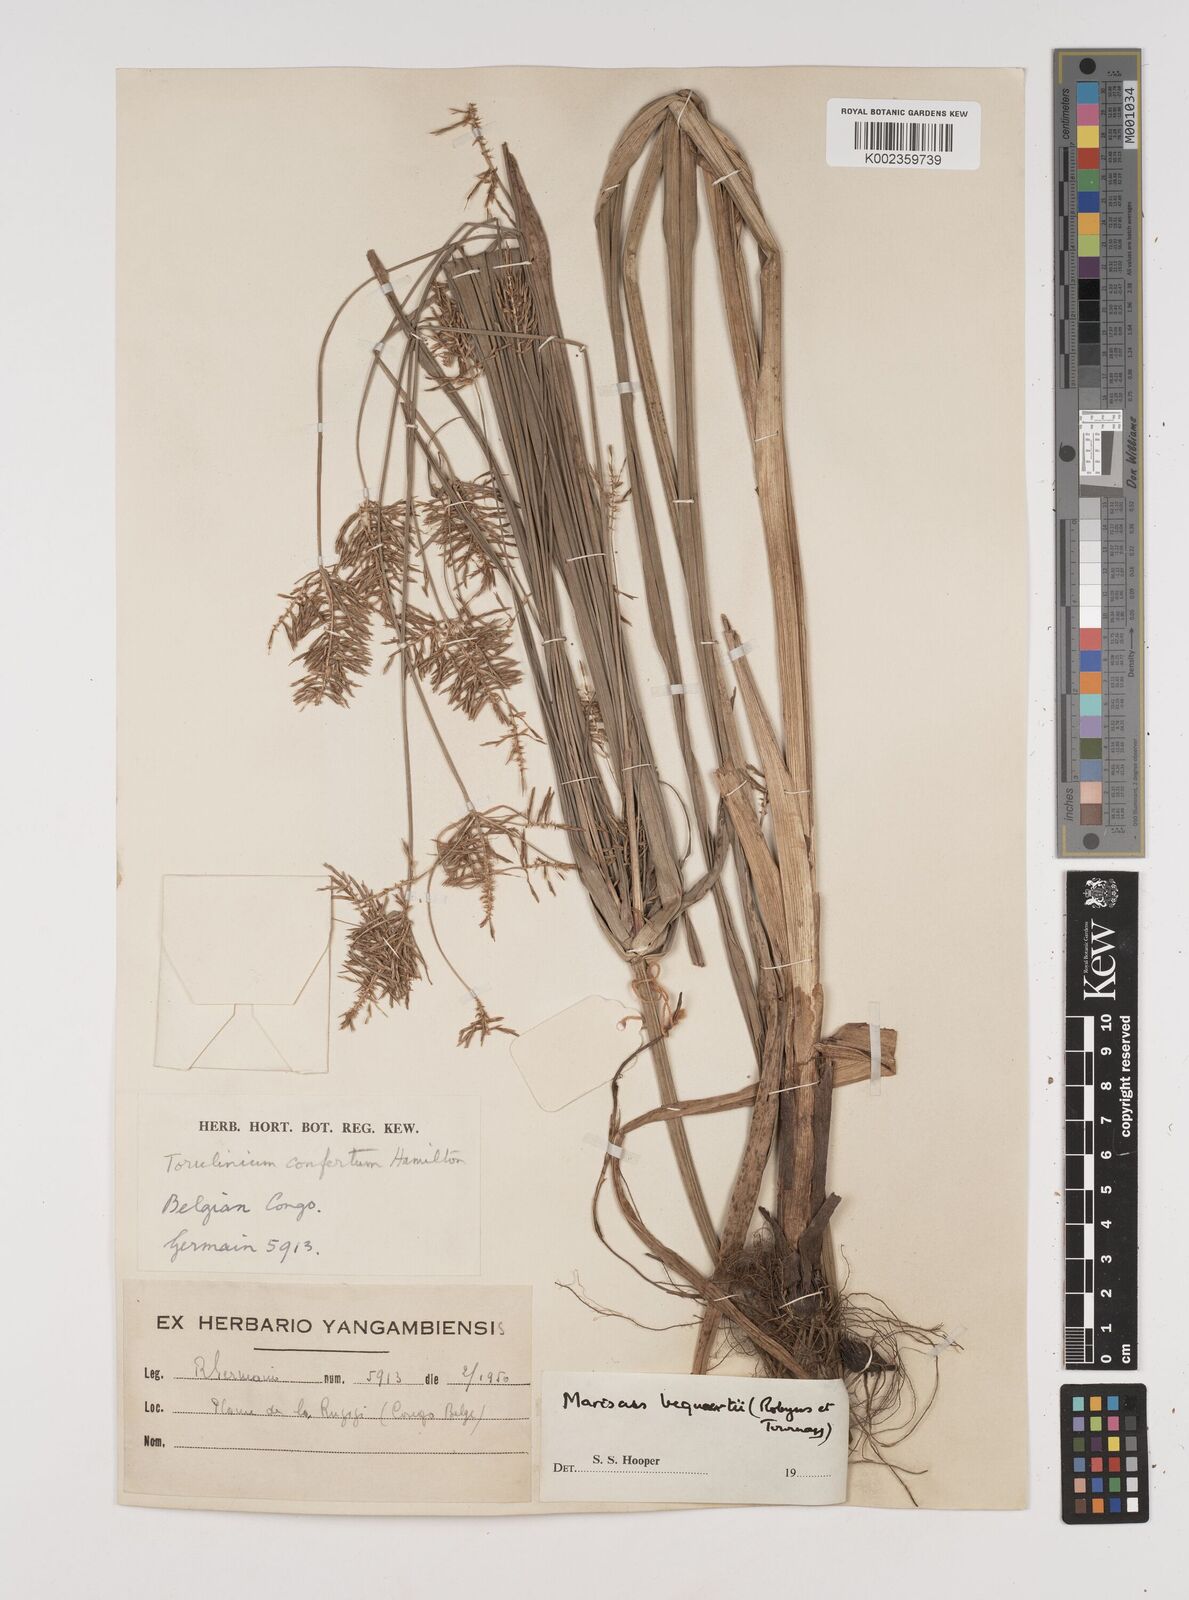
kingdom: Plantae
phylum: Tracheophyta
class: Liliopsida
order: Poales
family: Cyperaceae
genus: Cyperus
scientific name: Cyperus ferrugineoviridis
